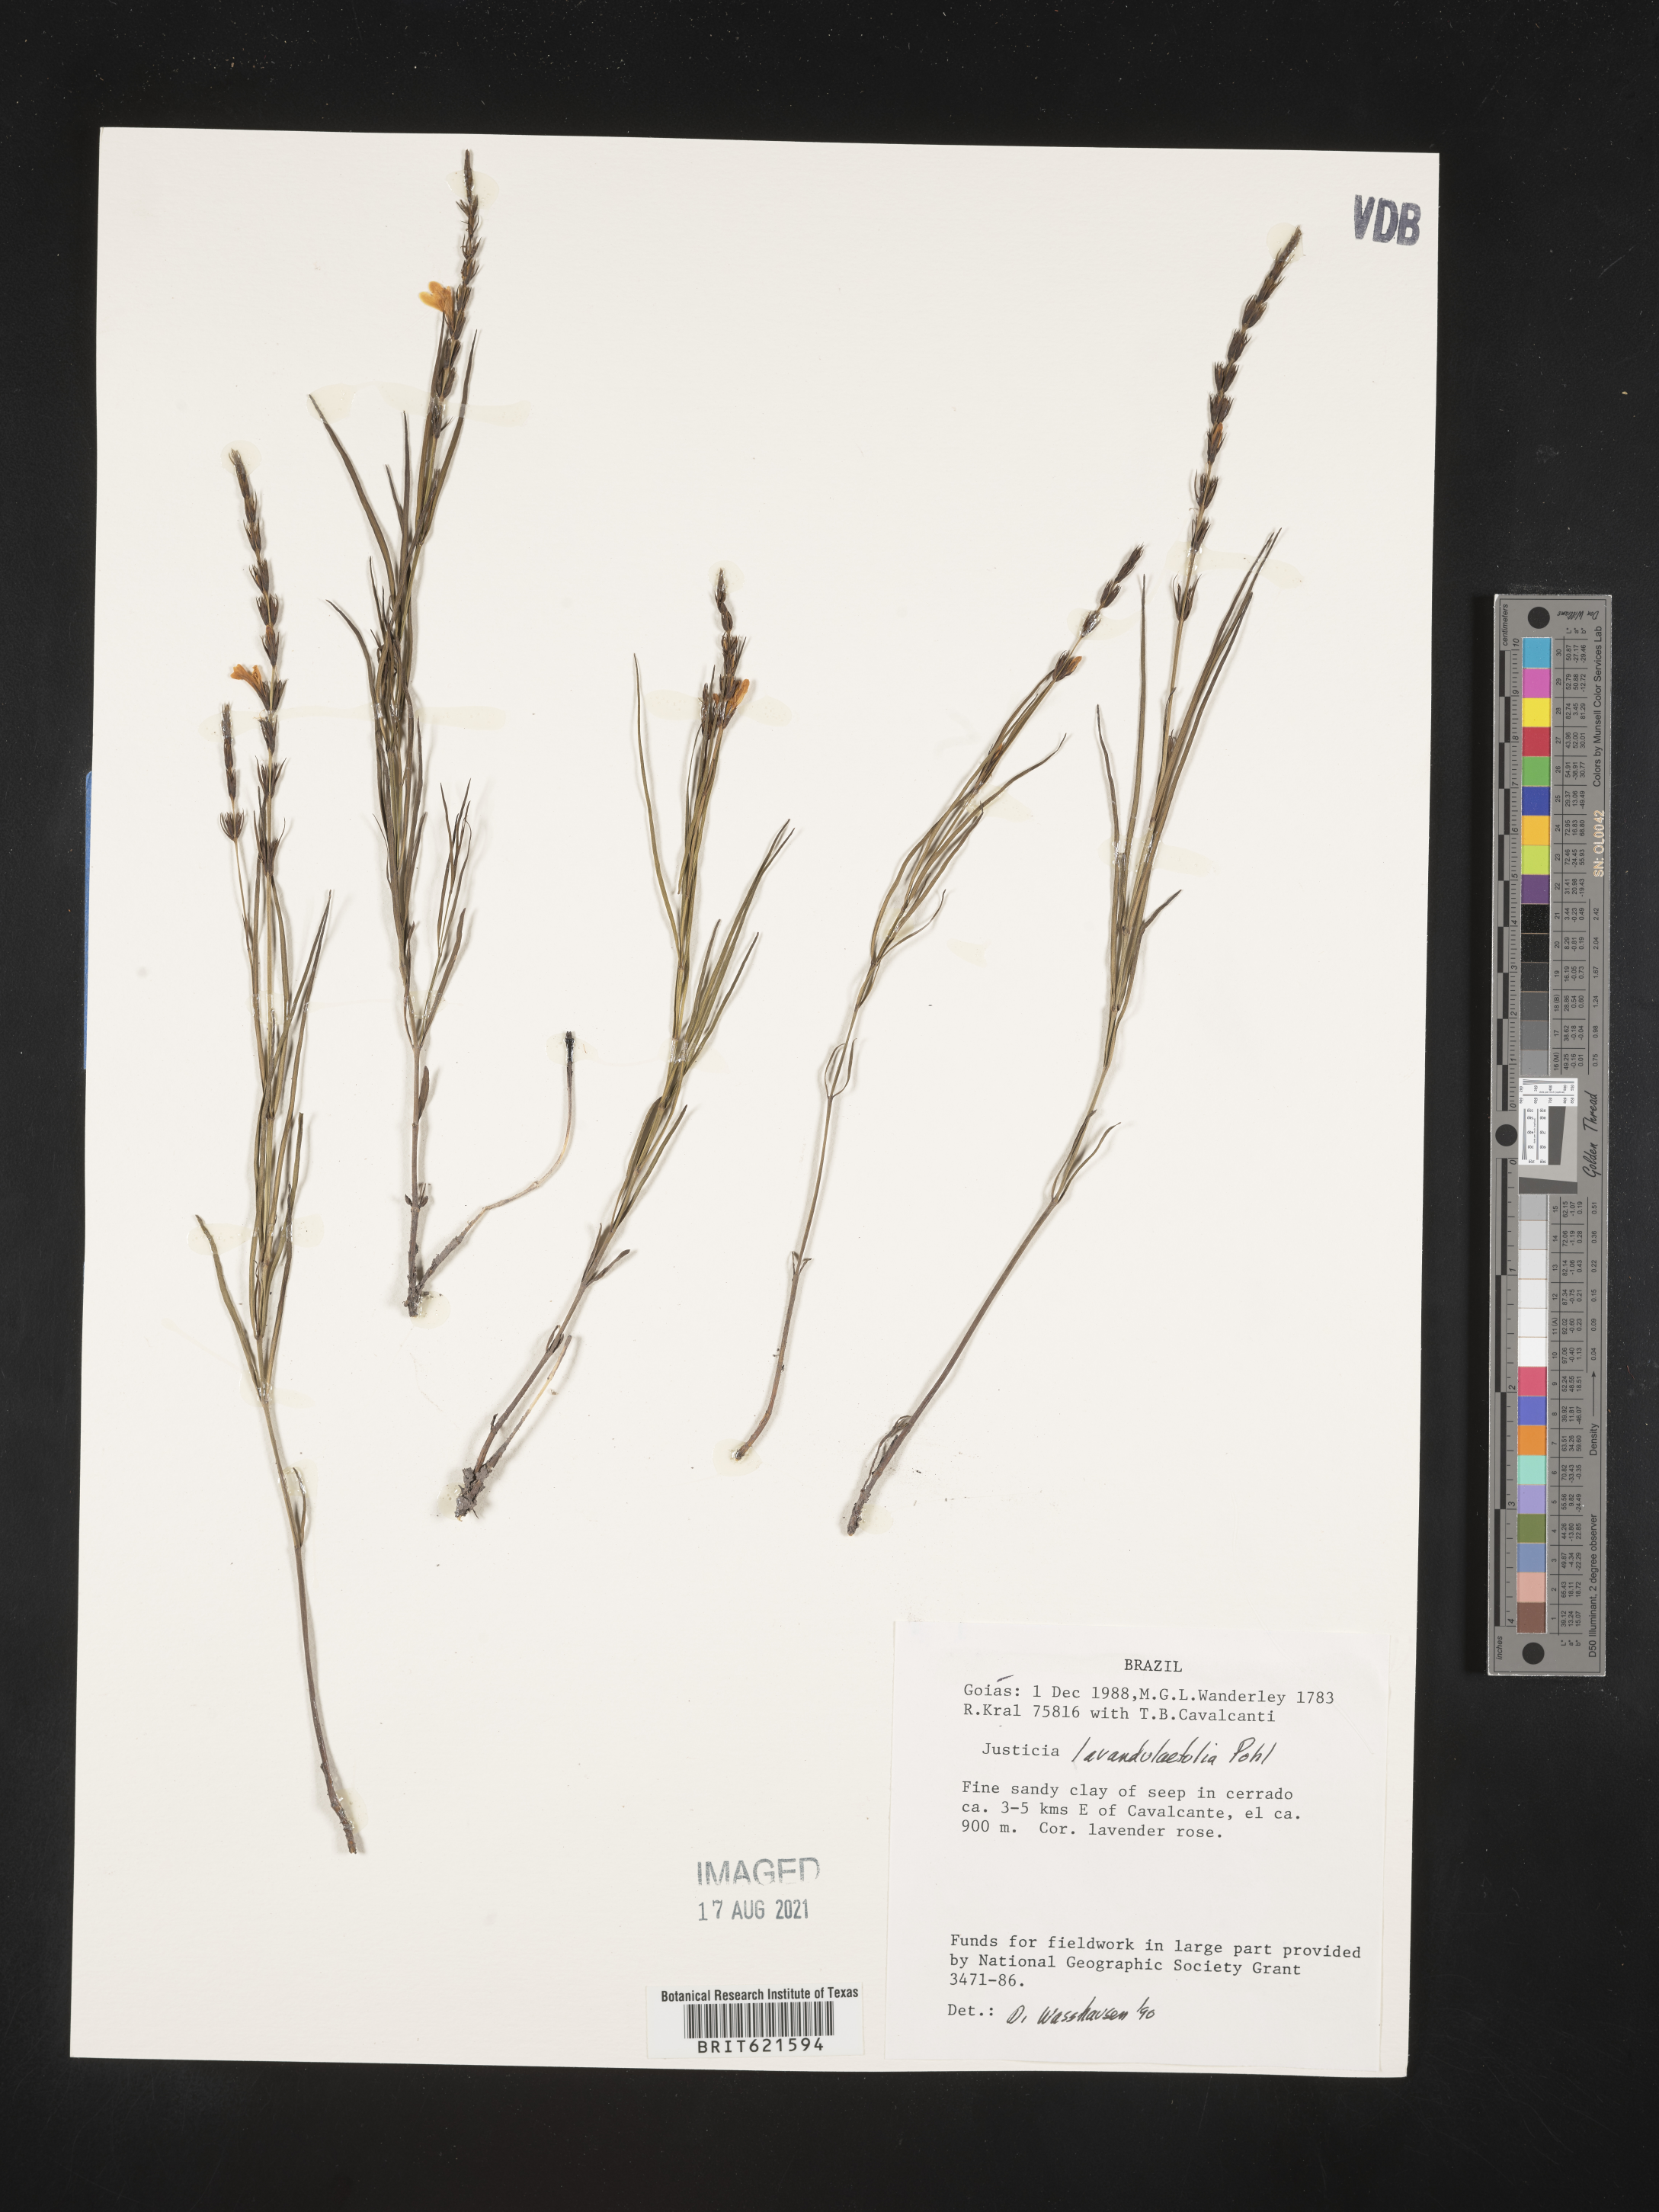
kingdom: Plantae
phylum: Tracheophyta
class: Magnoliopsida
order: Lamiales
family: Acanthaceae
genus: Justicia
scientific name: Justicia lavandulifolia
